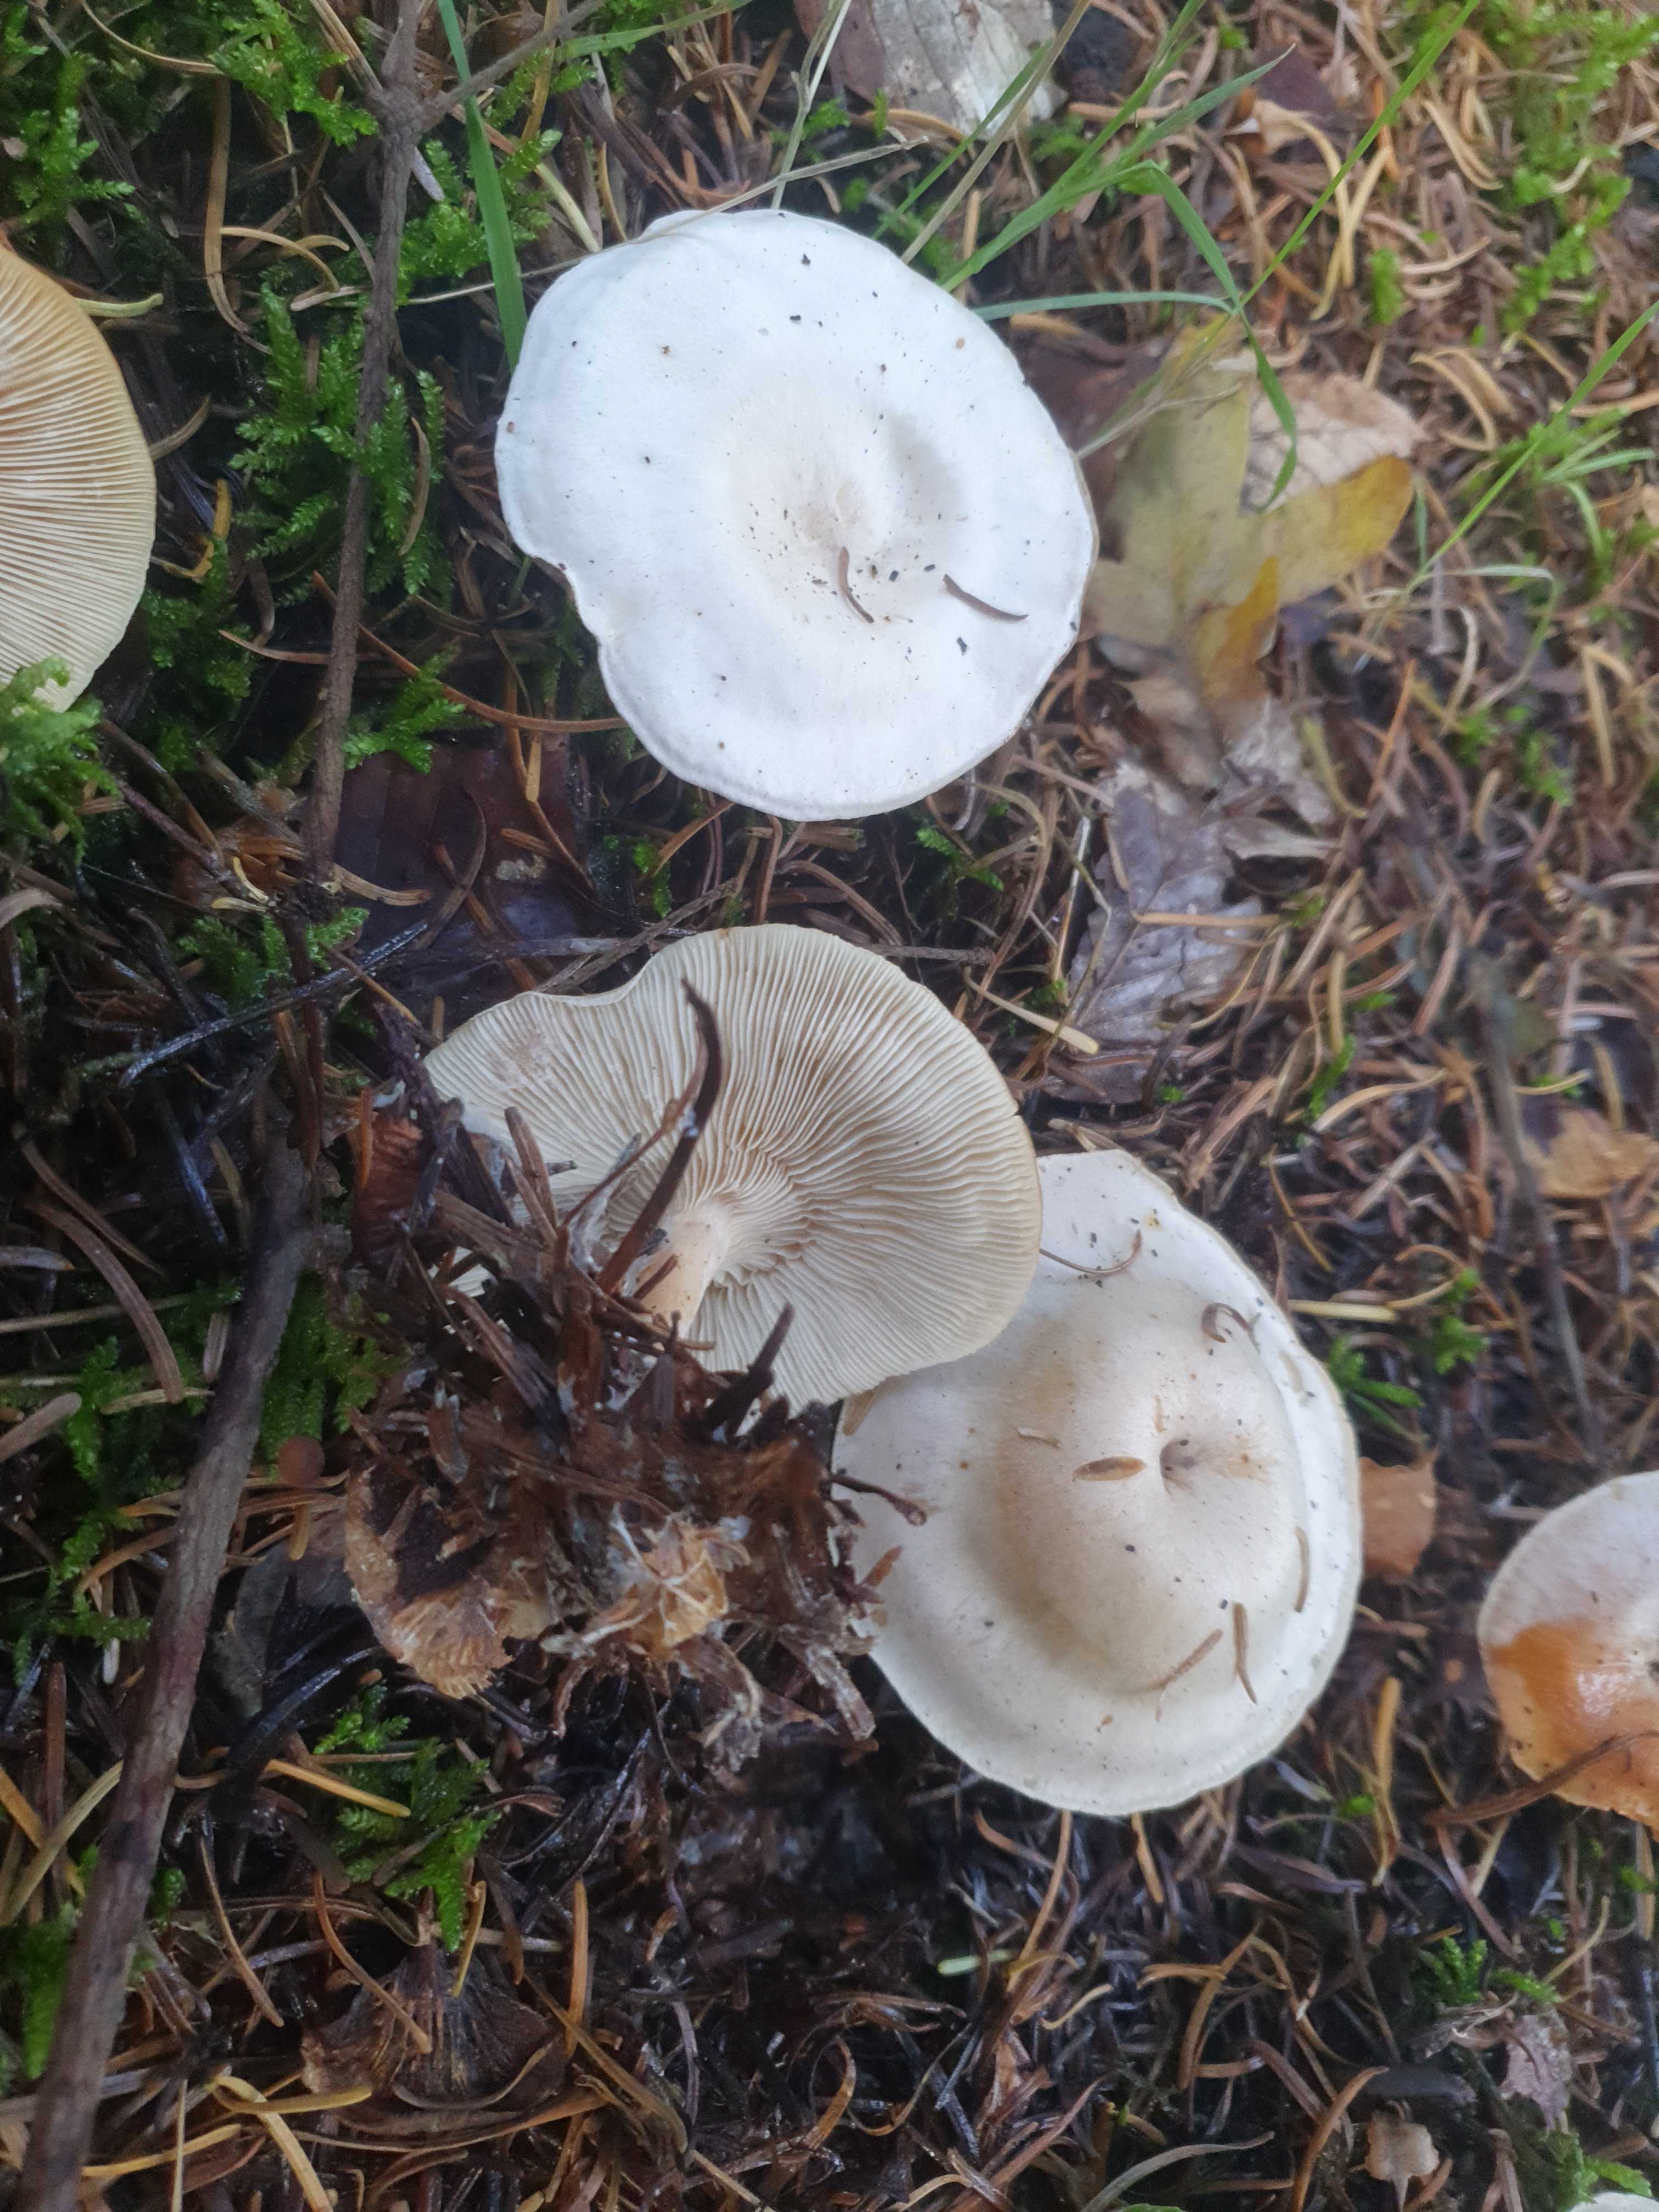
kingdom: Fungi
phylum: Basidiomycota
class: Agaricomycetes
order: Agaricales
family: Tricholomataceae
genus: Clitocybe
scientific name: Clitocybe phyllophila
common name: løv-tragthat
